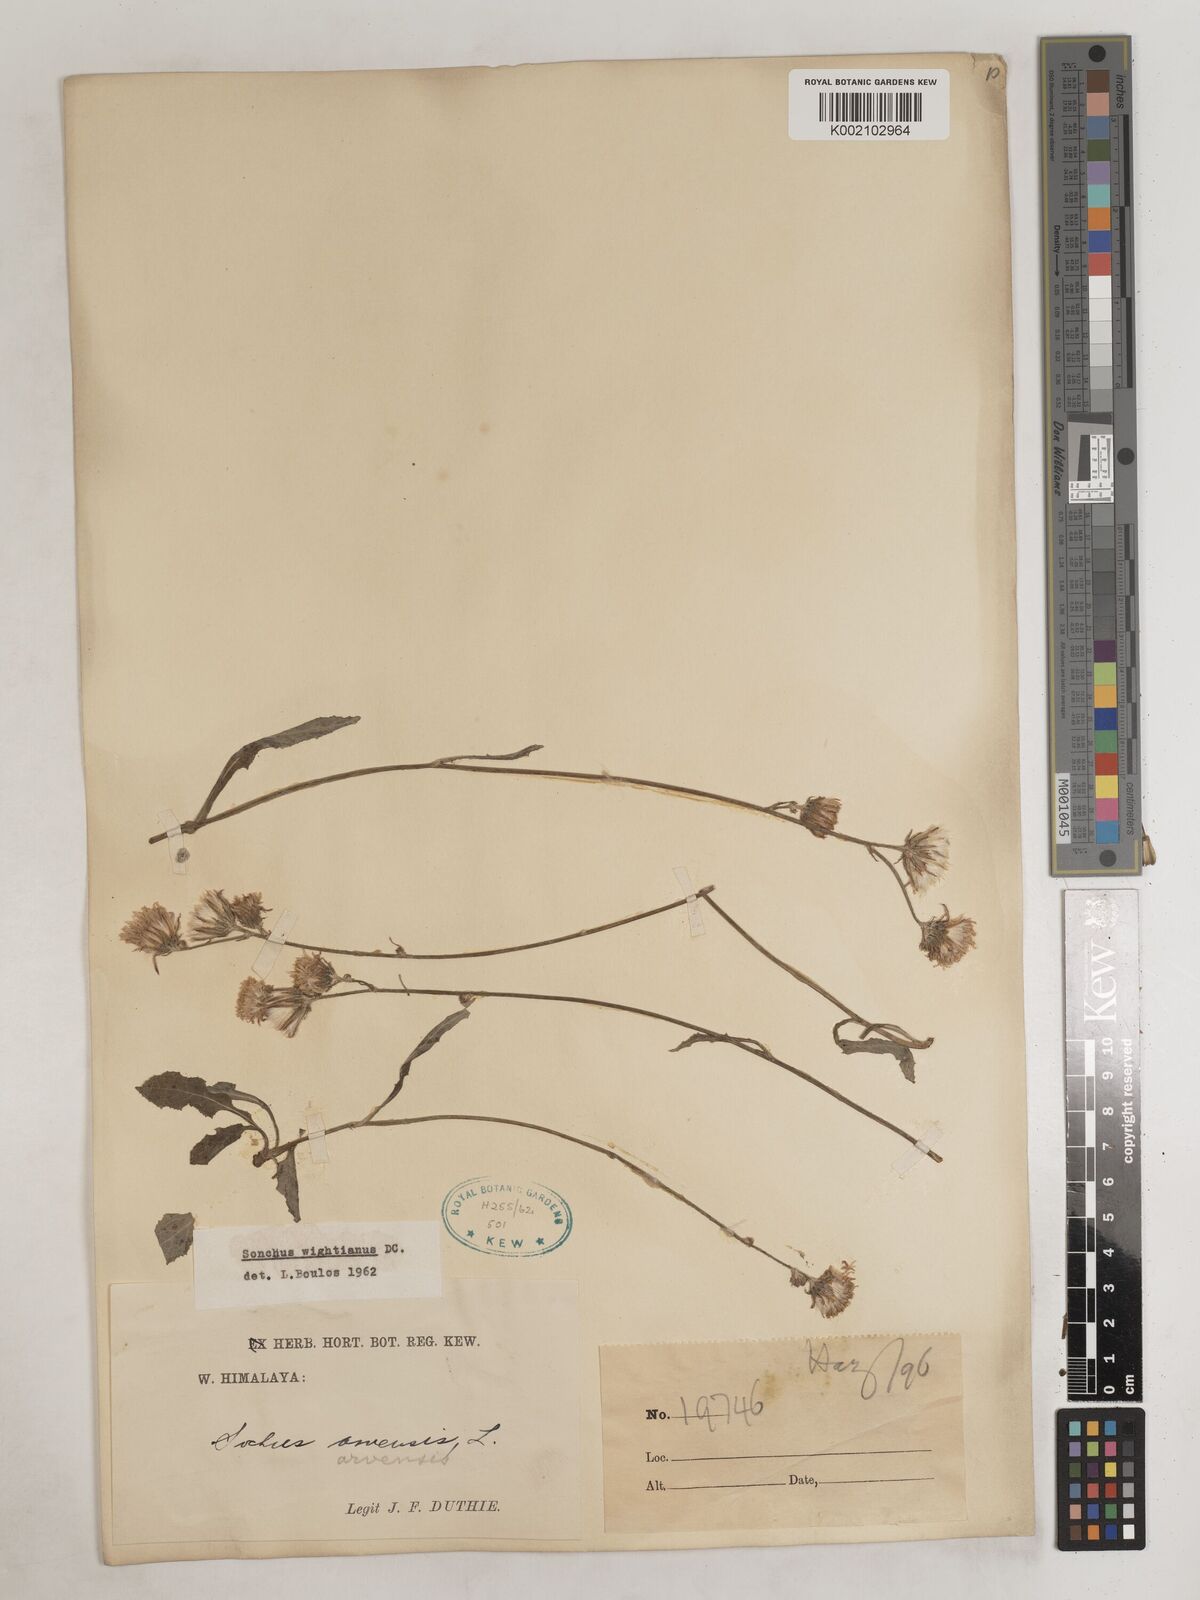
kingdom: Plantae
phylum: Tracheophyta
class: Magnoliopsida
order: Asterales
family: Asteraceae
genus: Sonchus
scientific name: Sonchus arvensis
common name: Perennial sow-thistle
